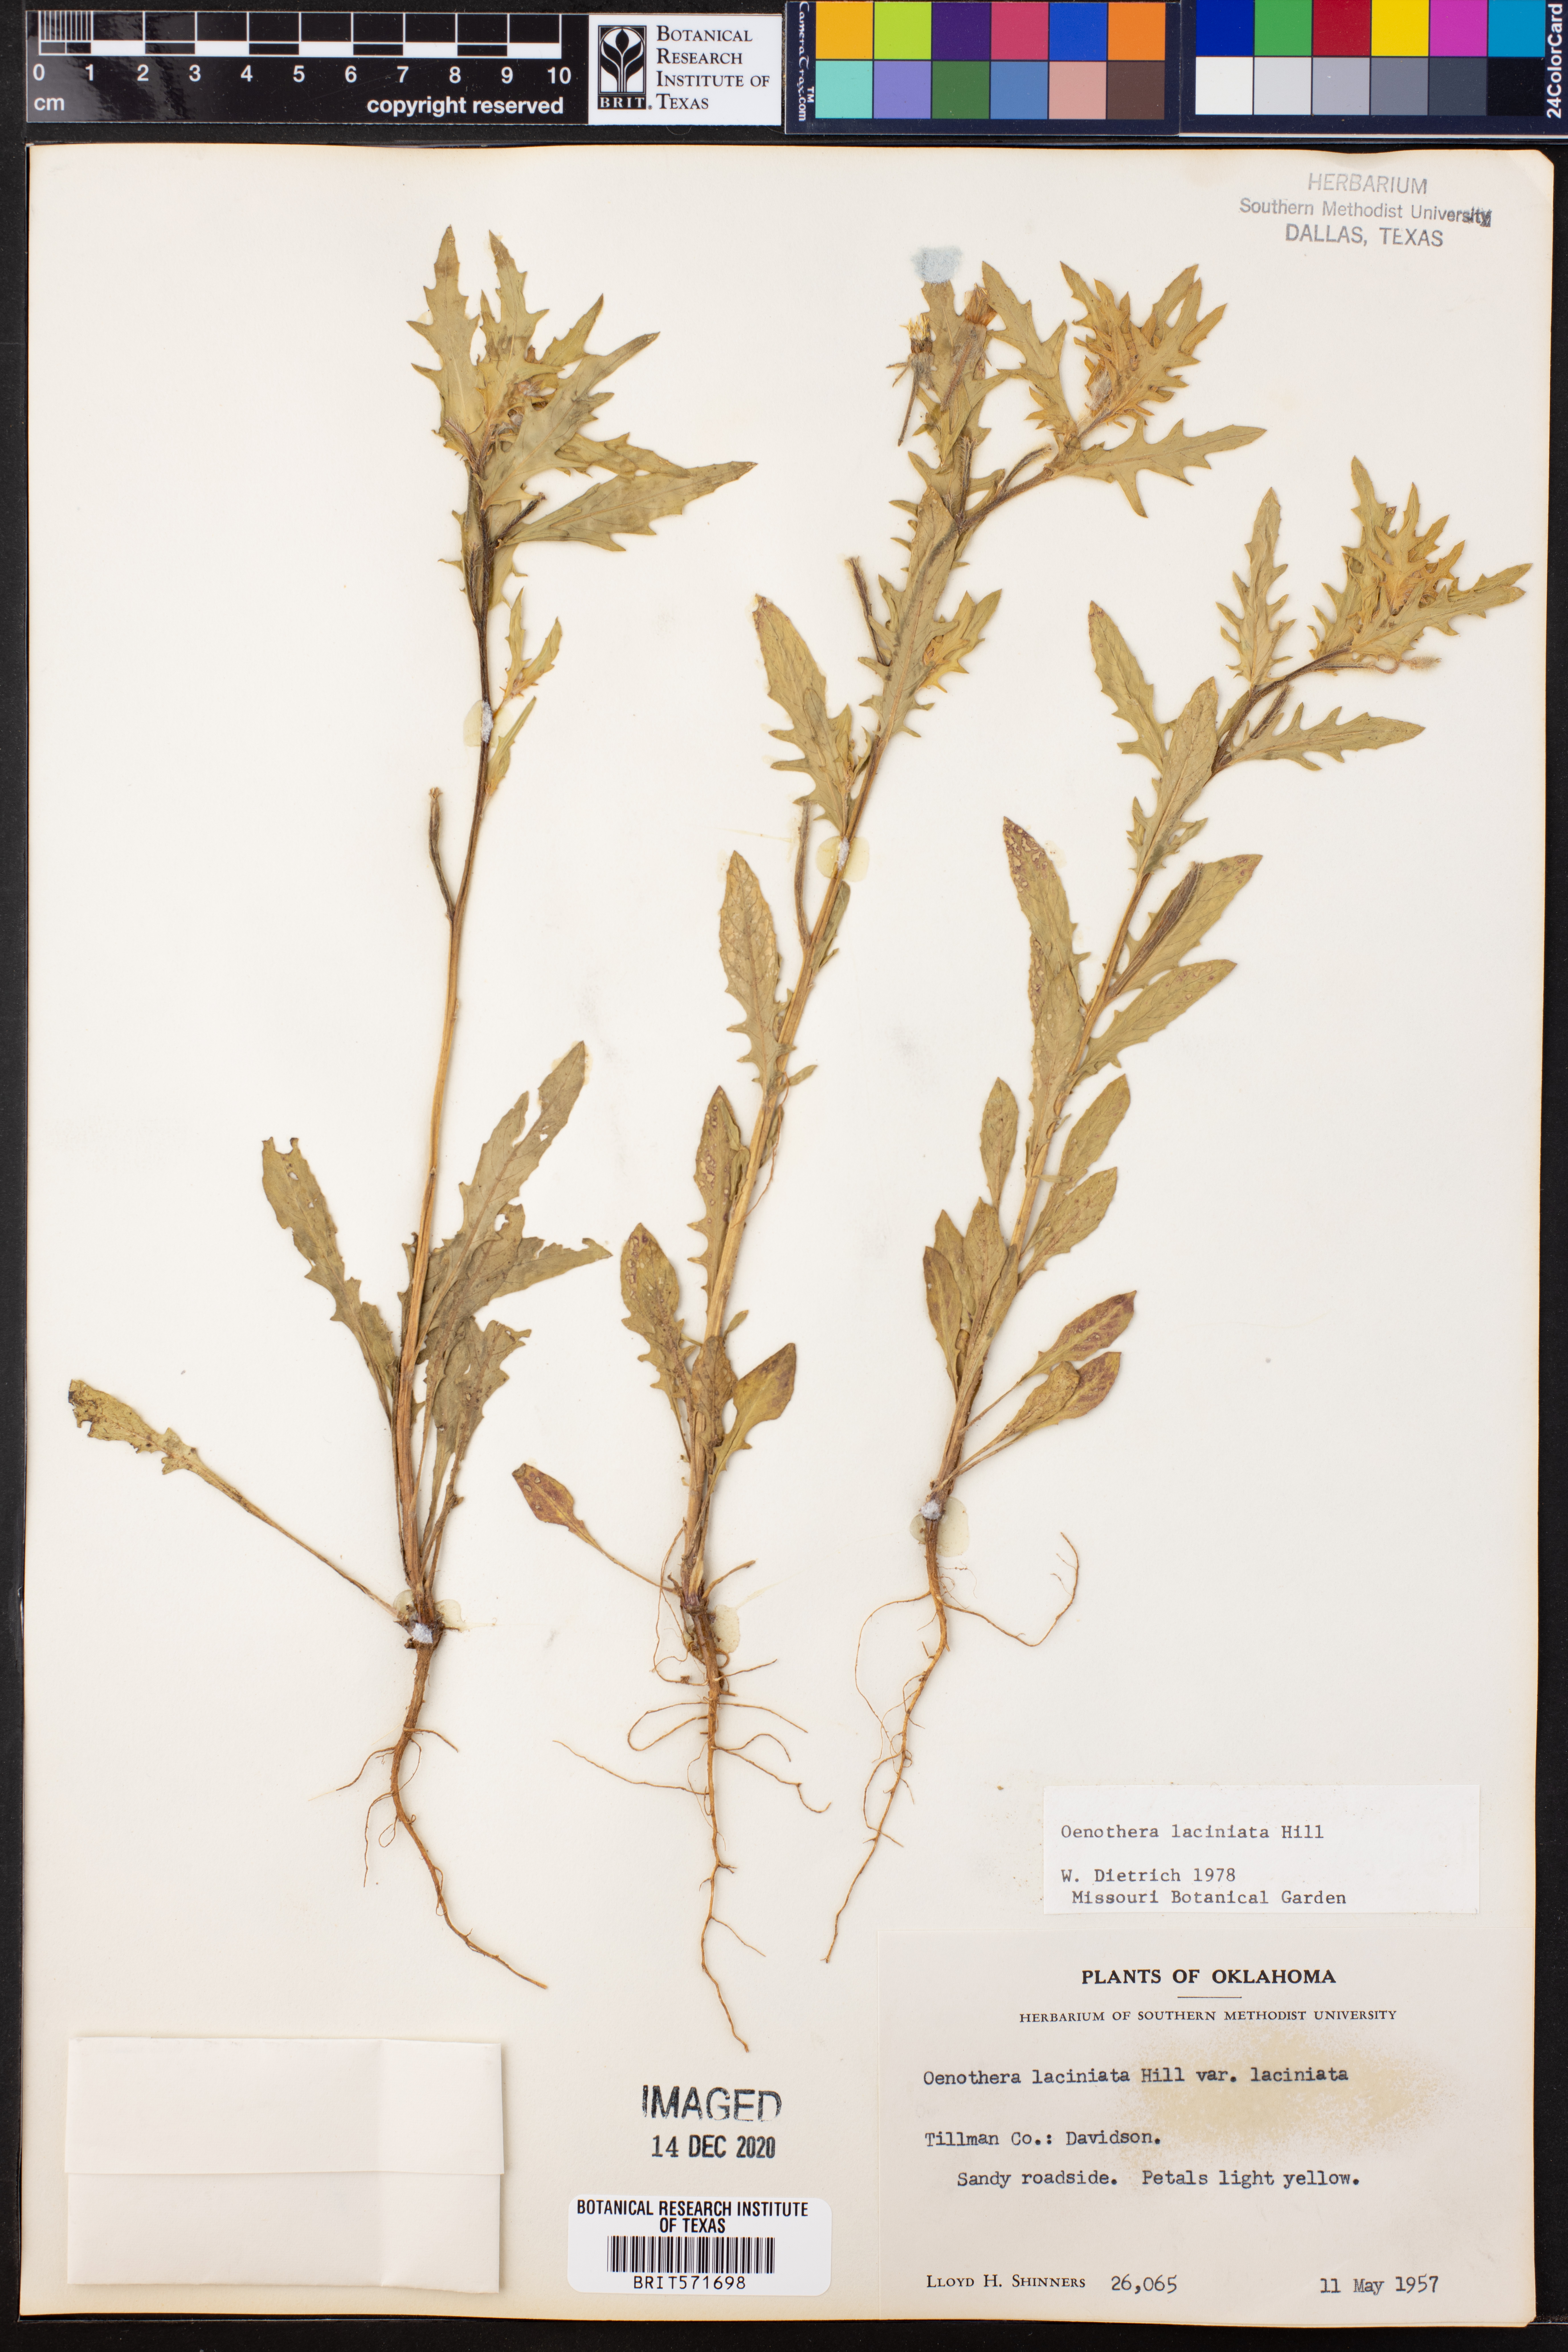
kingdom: Plantae
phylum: Tracheophyta
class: Magnoliopsida
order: Myrtales
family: Onagraceae
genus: Oenothera
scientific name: Oenothera laciniata
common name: Cut-leaved evening-primrose
